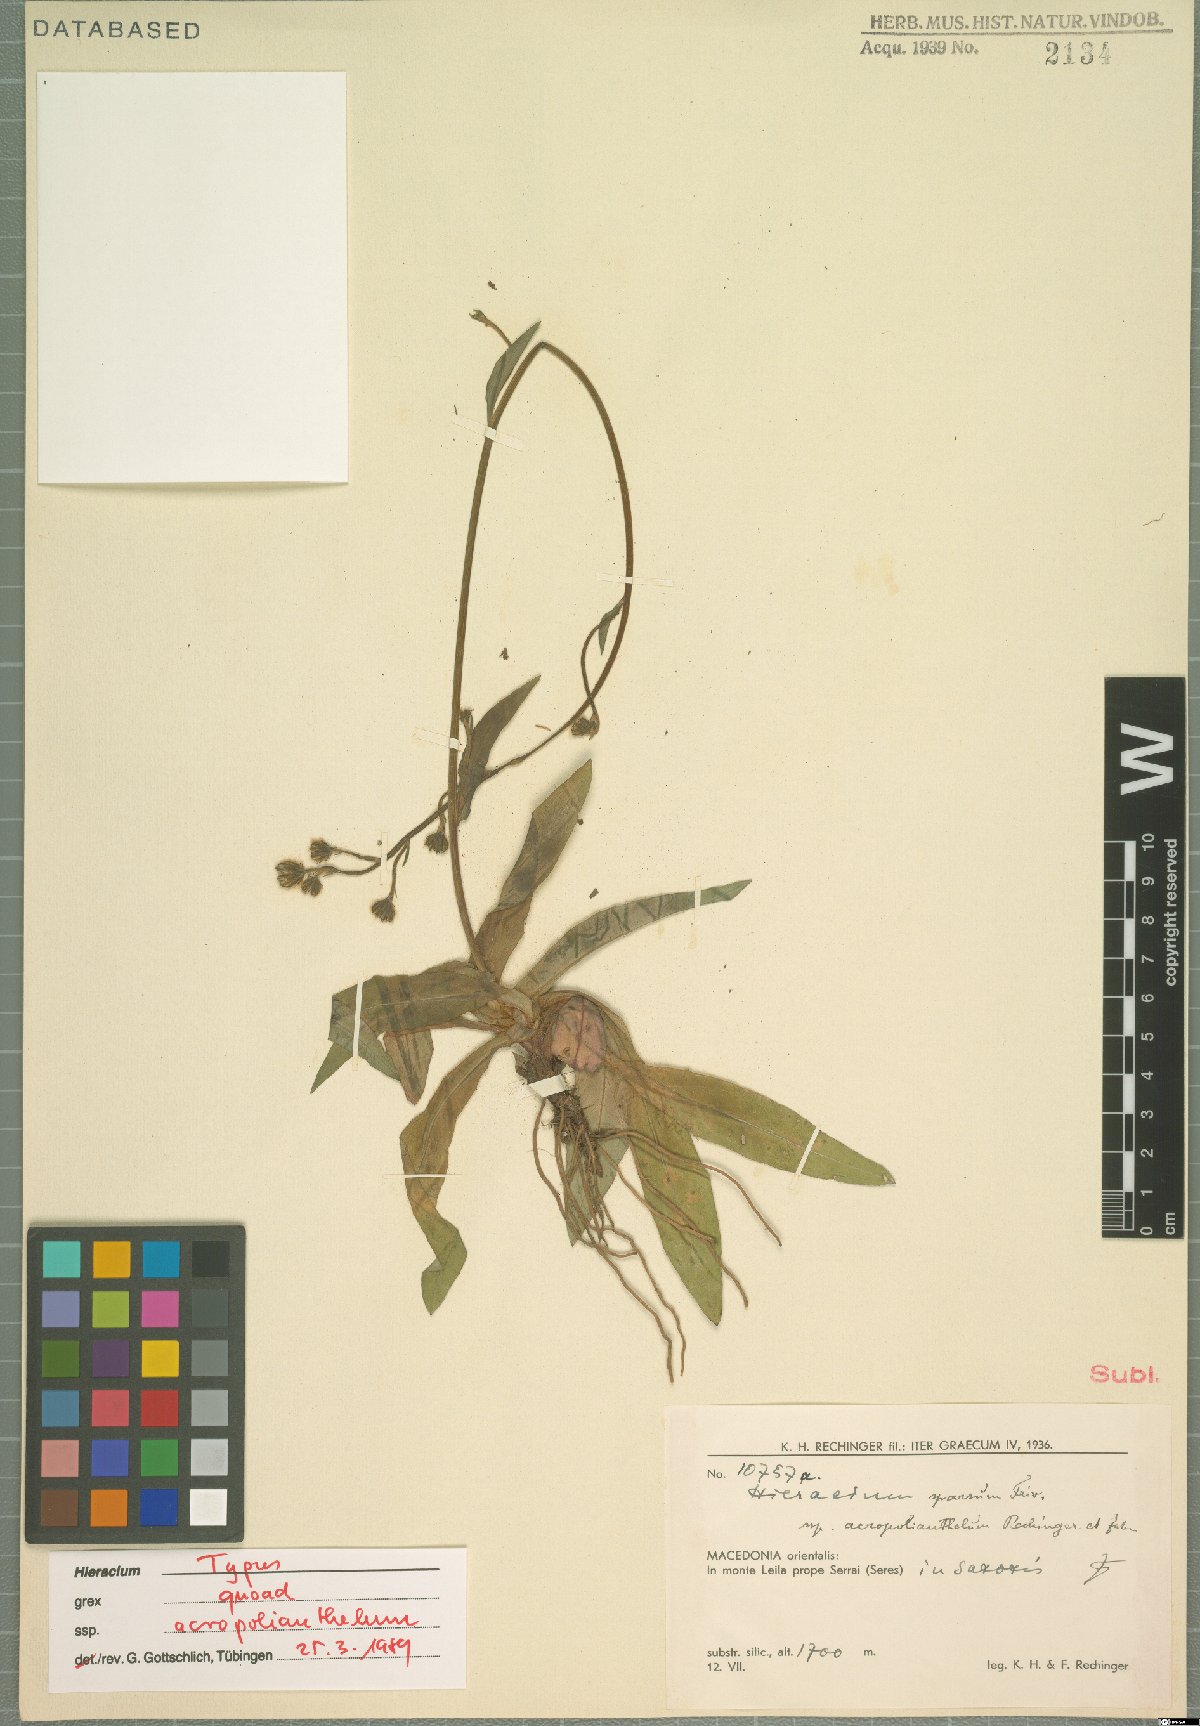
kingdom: Plantae
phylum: Tracheophyta
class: Magnoliopsida
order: Asterales
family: Asteraceae
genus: Hieracium
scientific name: Hieracium sparsum
